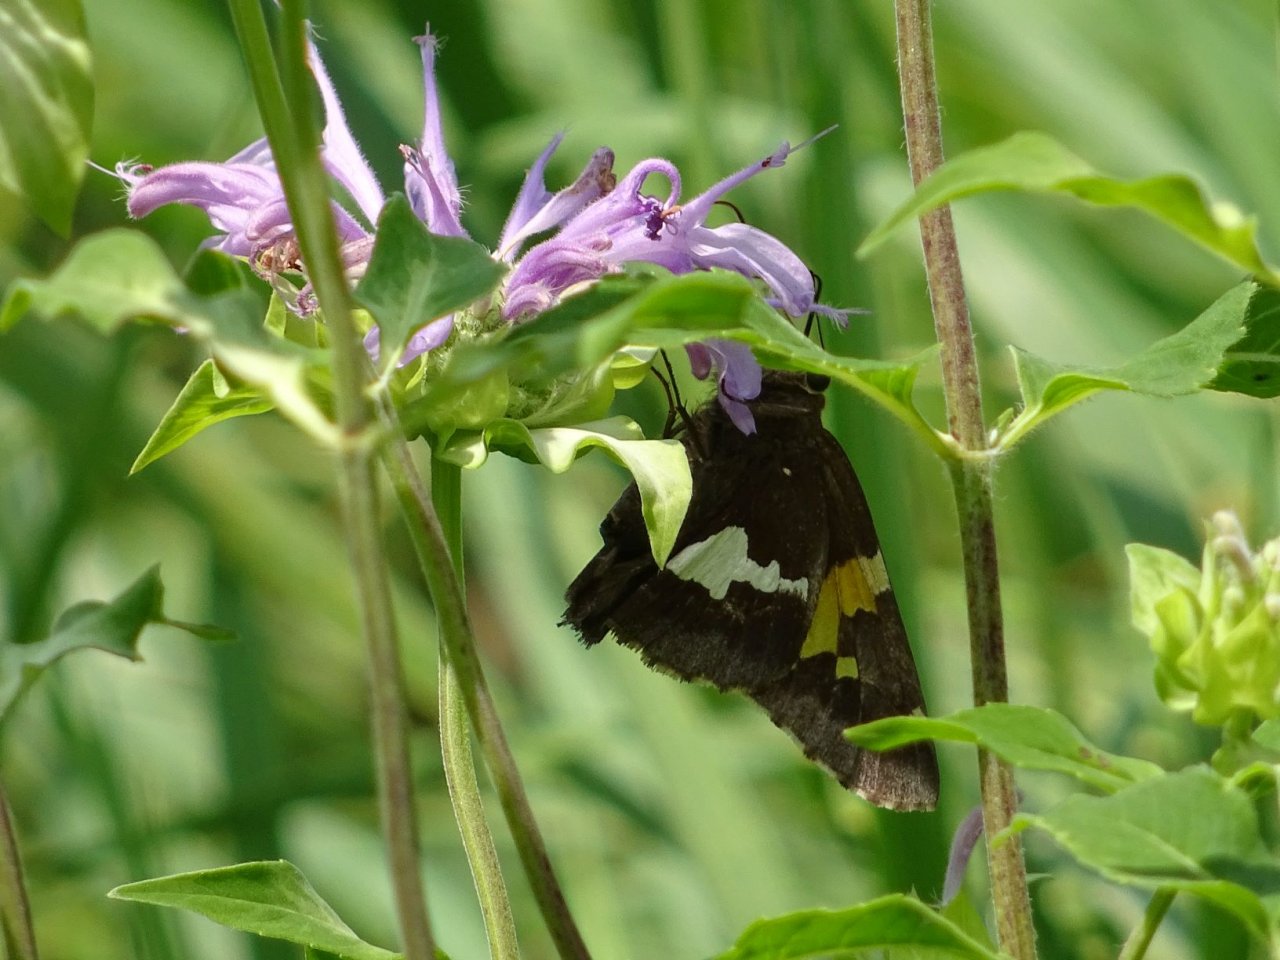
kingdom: Animalia
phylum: Arthropoda
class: Insecta
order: Lepidoptera
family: Hesperiidae
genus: Epargyreus
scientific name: Epargyreus clarus
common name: Silver-spotted Skipper
